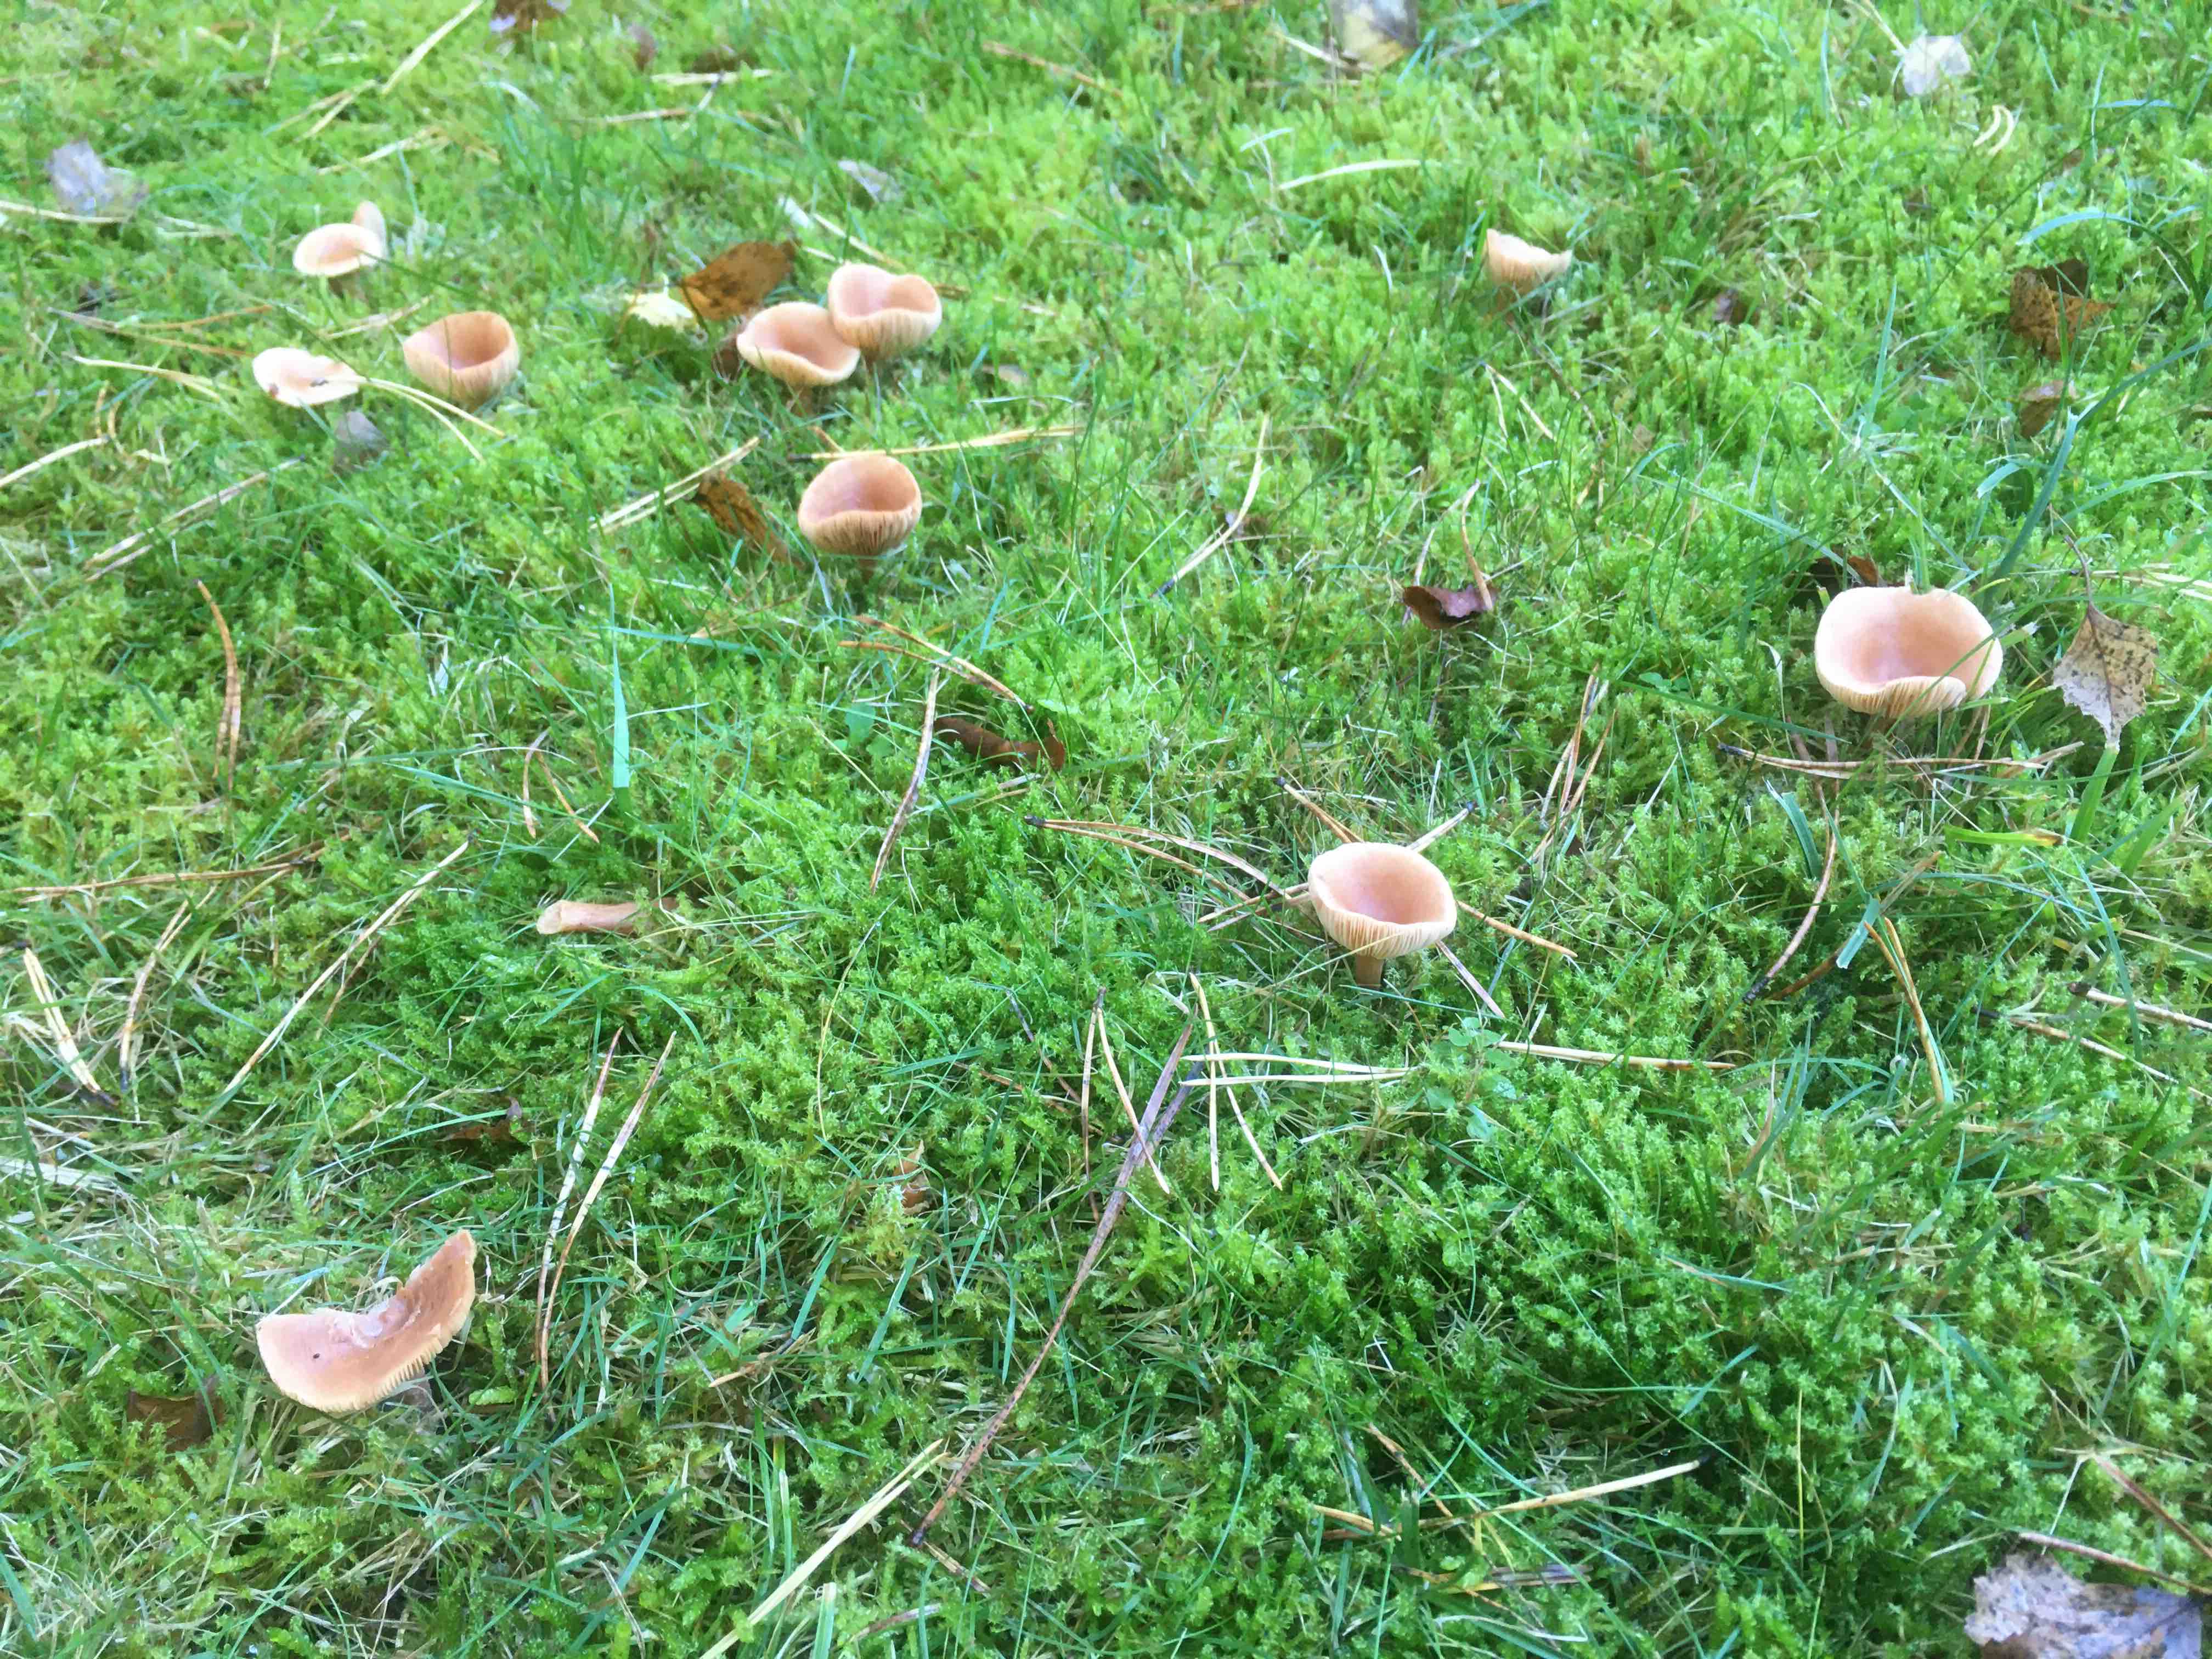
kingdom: Fungi
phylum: Basidiomycota
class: Agaricomycetes
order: Russulales
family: Russulaceae
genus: Lactarius
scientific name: Lactarius
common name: mælkehat
